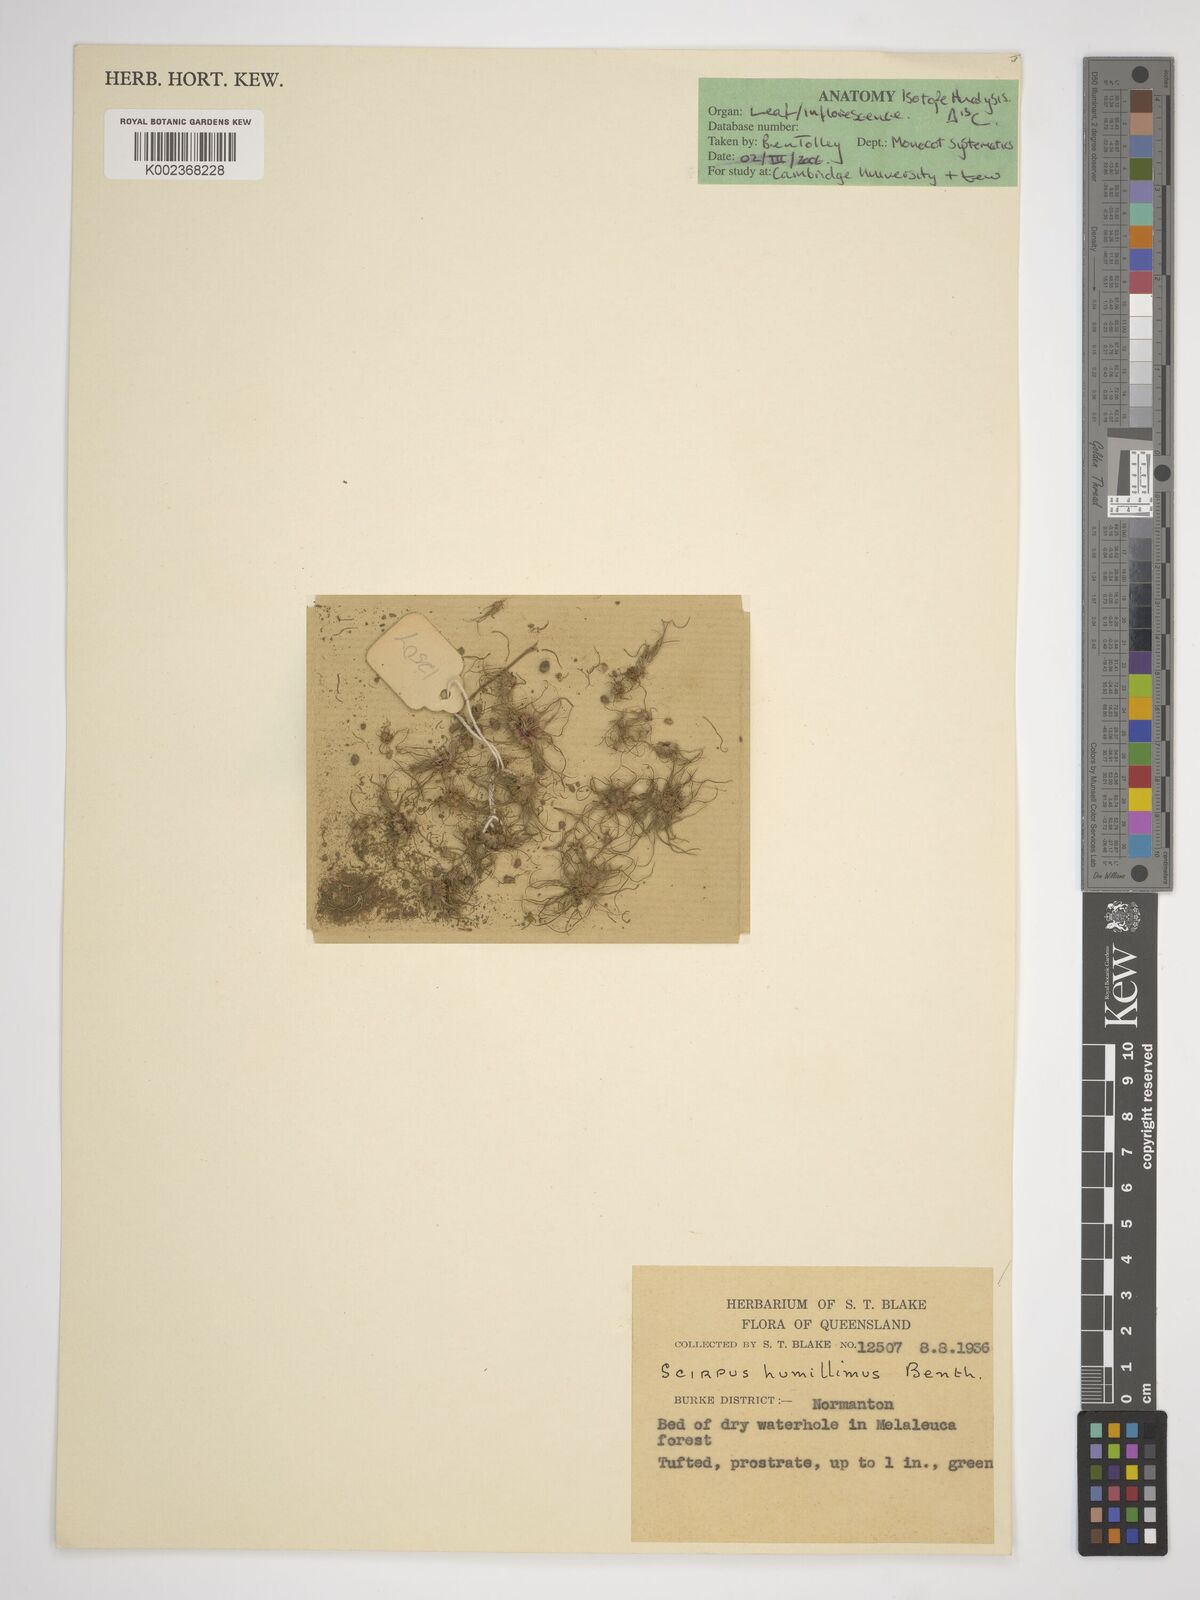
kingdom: Plantae
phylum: Tracheophyta
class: Liliopsida
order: Poales
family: Cyperaceae
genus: Schoenoplectiella
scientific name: Schoenoplectiella humillima
